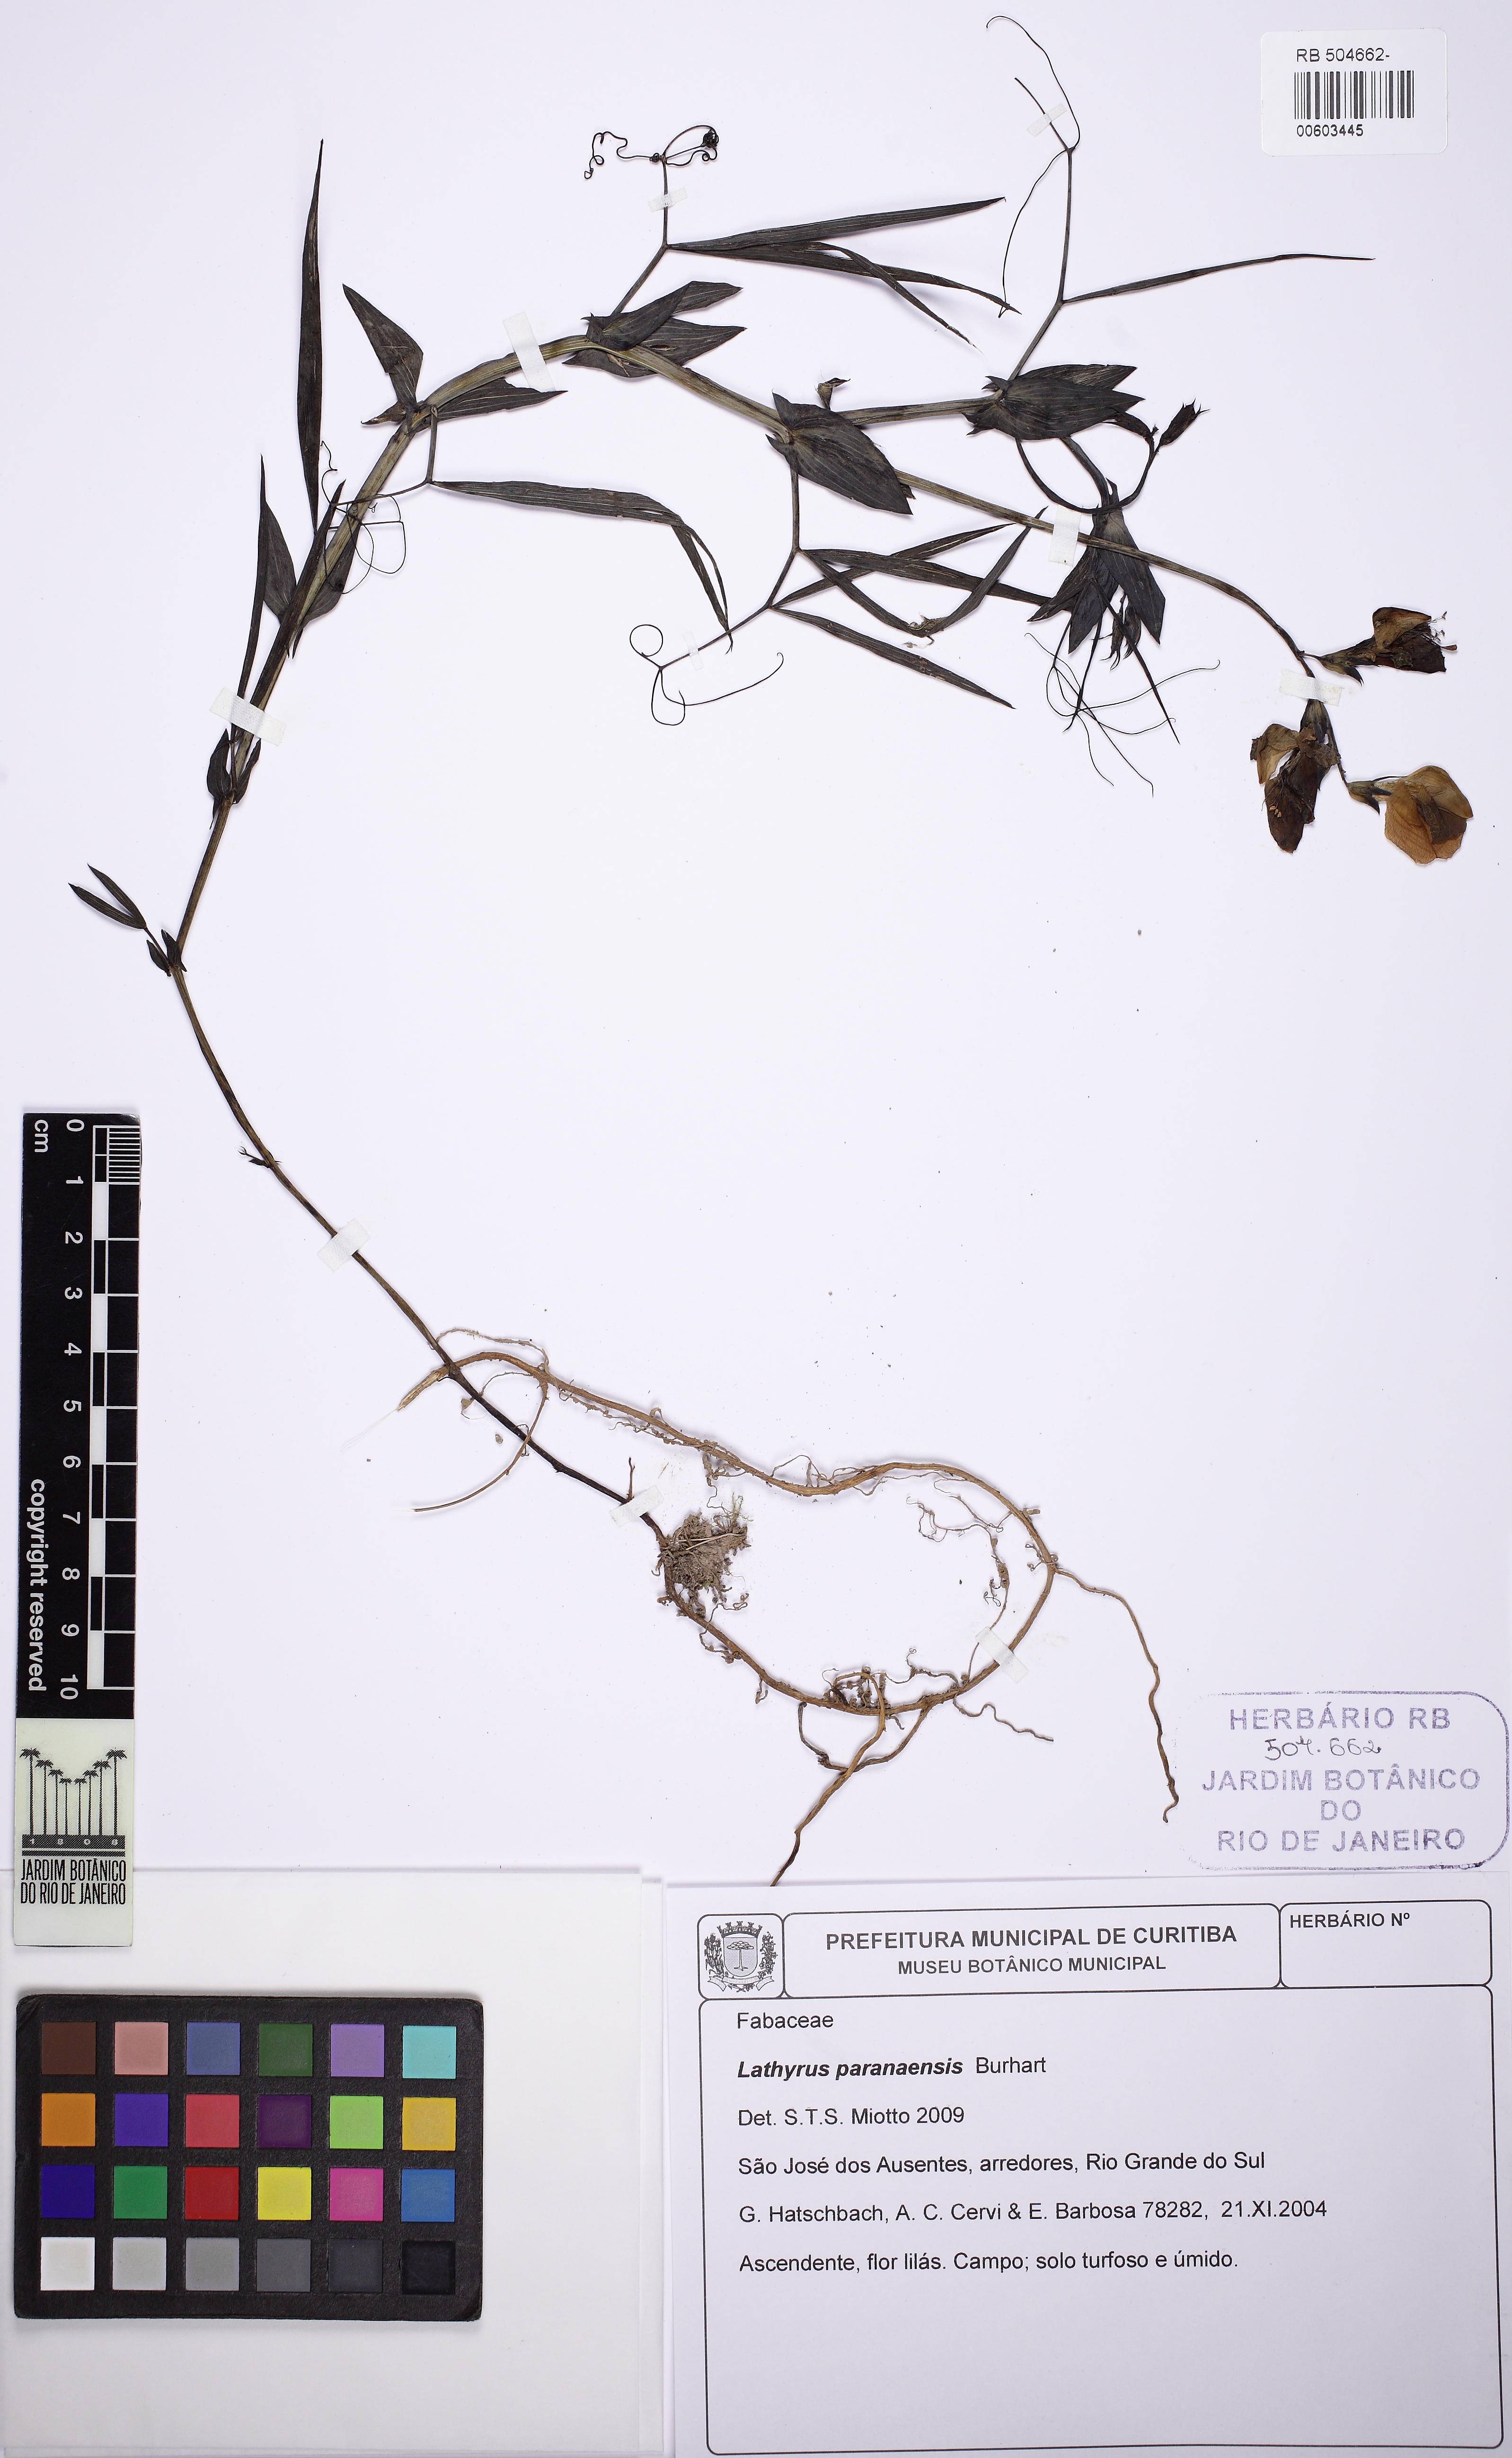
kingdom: Plantae
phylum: Tracheophyta
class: Magnoliopsida
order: Fabales
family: Fabaceae
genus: Lathyrus
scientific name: Lathyrus paranensis
